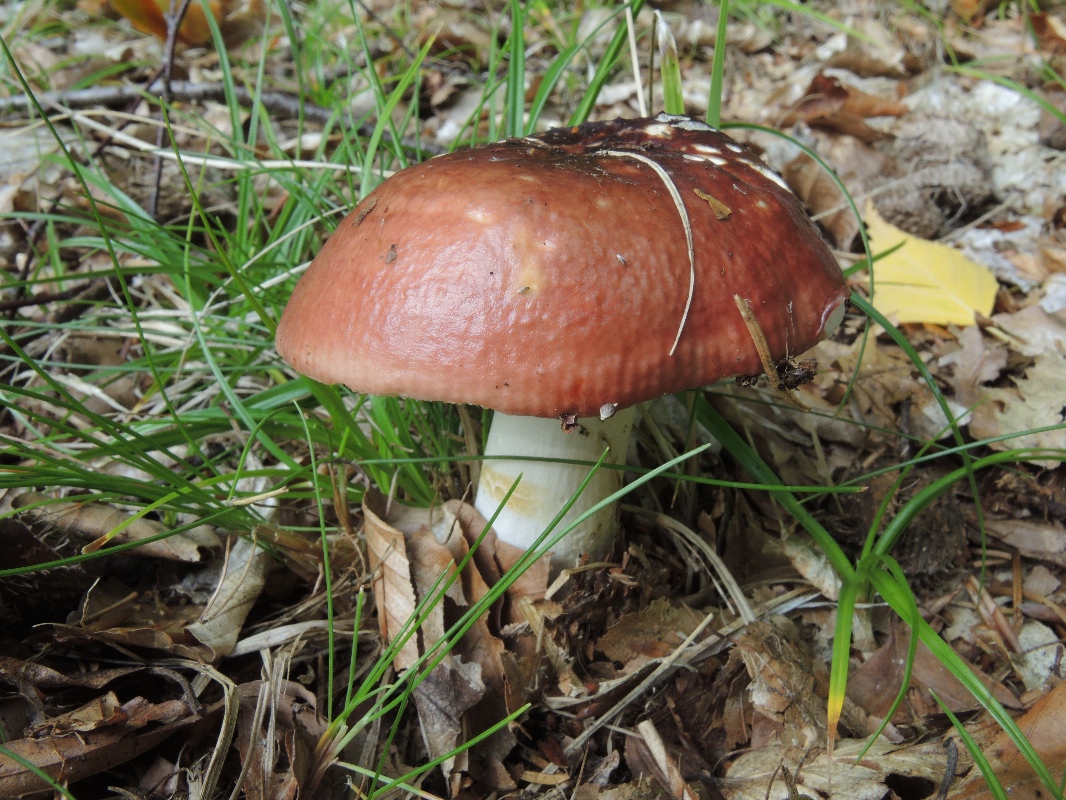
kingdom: Fungi
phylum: Basidiomycota
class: Agaricomycetes
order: Russulales
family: Russulaceae
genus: Russula
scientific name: Russula melliolens
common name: honning-skørhat
